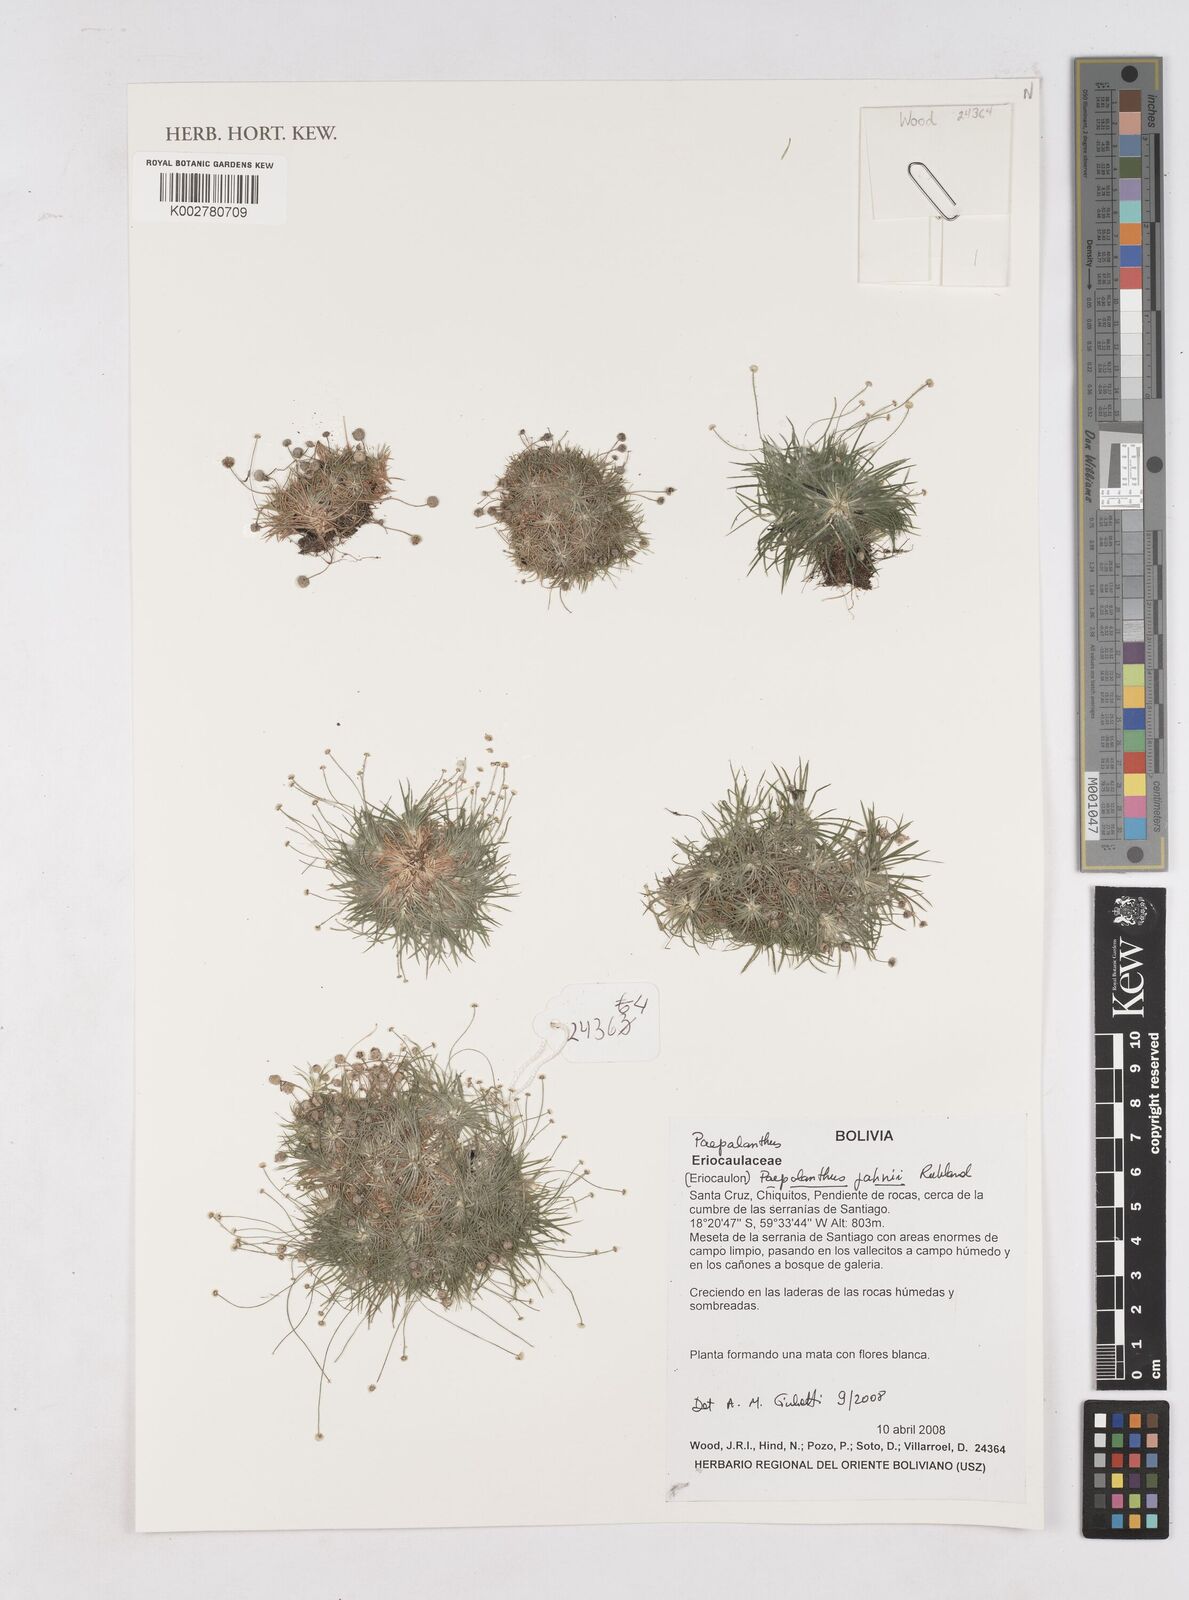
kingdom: Plantae
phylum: Tracheophyta
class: Liliopsida
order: Poales
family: Eriocaulaceae
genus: Paepalanthus
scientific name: Paepalanthus supinus
